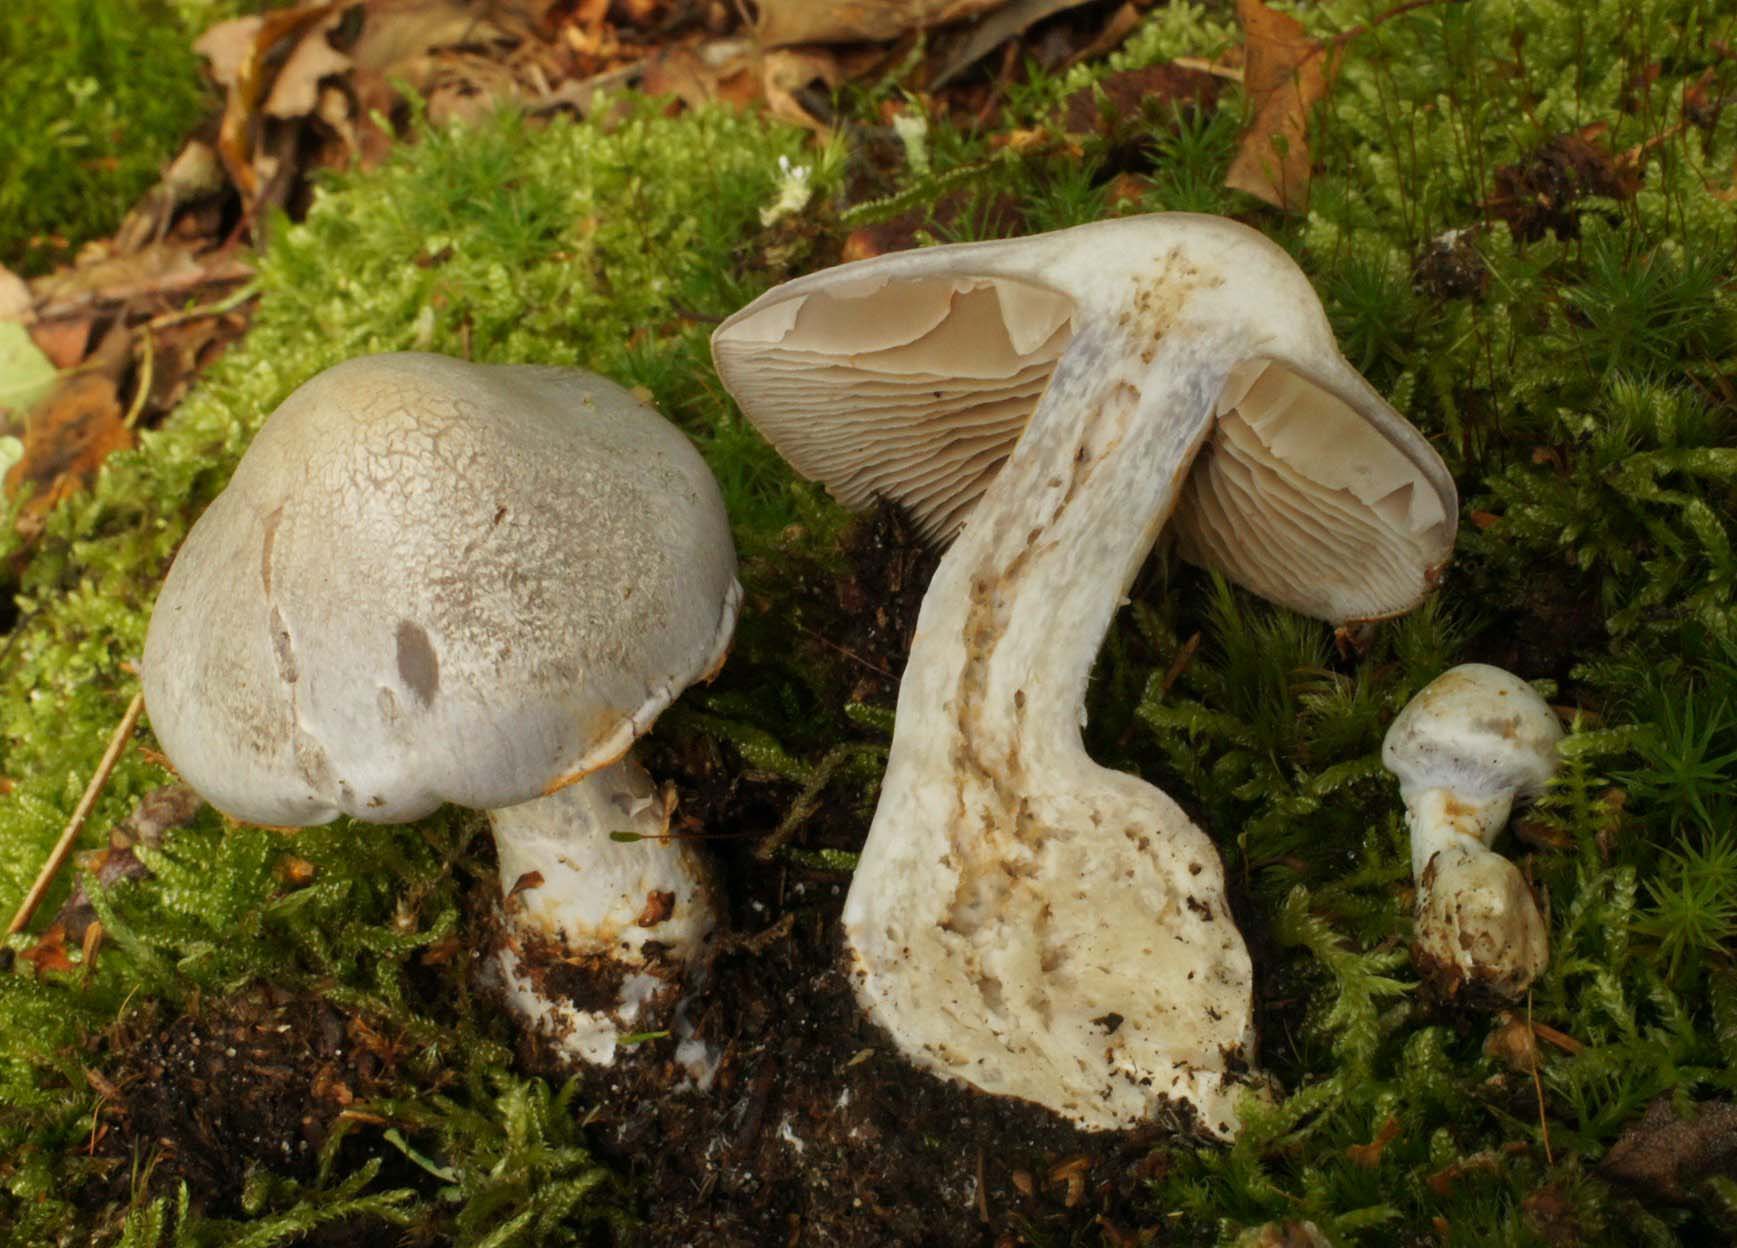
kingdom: Fungi
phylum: Basidiomycota
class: Agaricomycetes
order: Agaricales
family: Cortinariaceae
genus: Cortinarius
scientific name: Cortinarius alboviolaceus
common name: lysviolet slørhat
